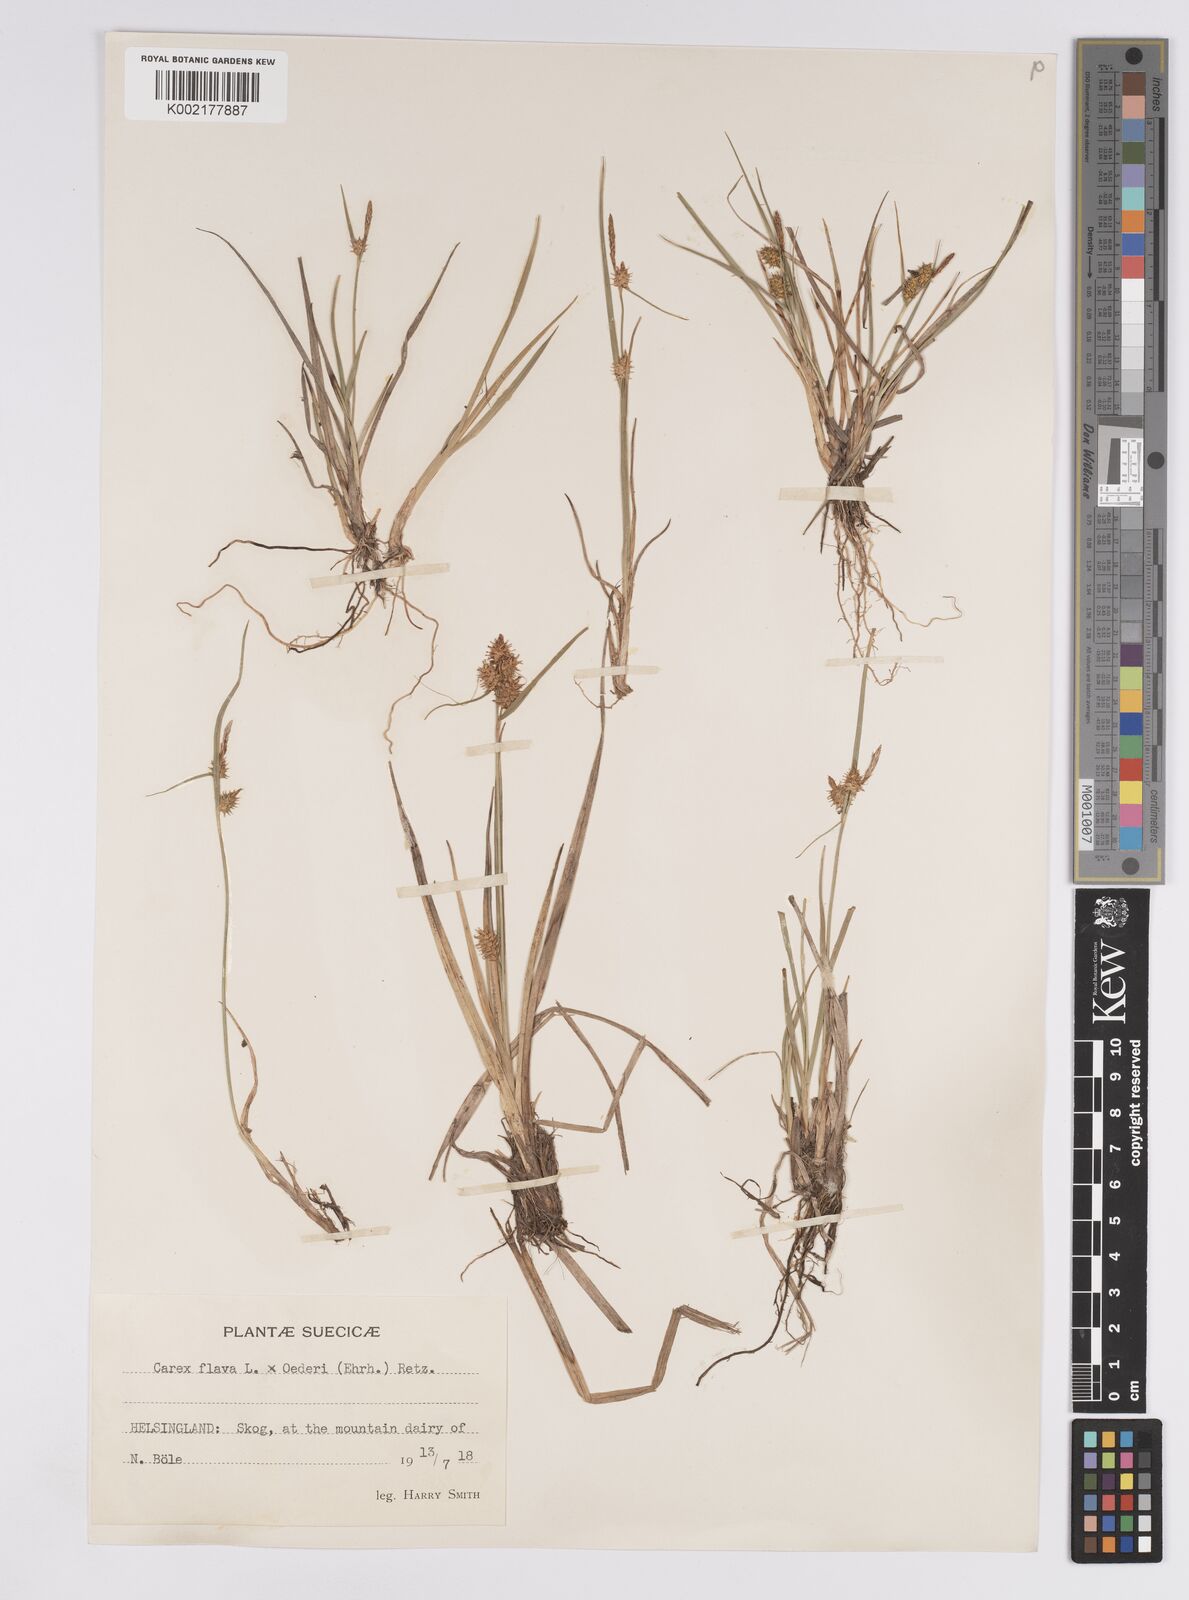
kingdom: Plantae
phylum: Tracheophyta
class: Liliopsida
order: Poales
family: Cyperaceae
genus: Carex
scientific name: Carex flava
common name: Large yellow-sedge
